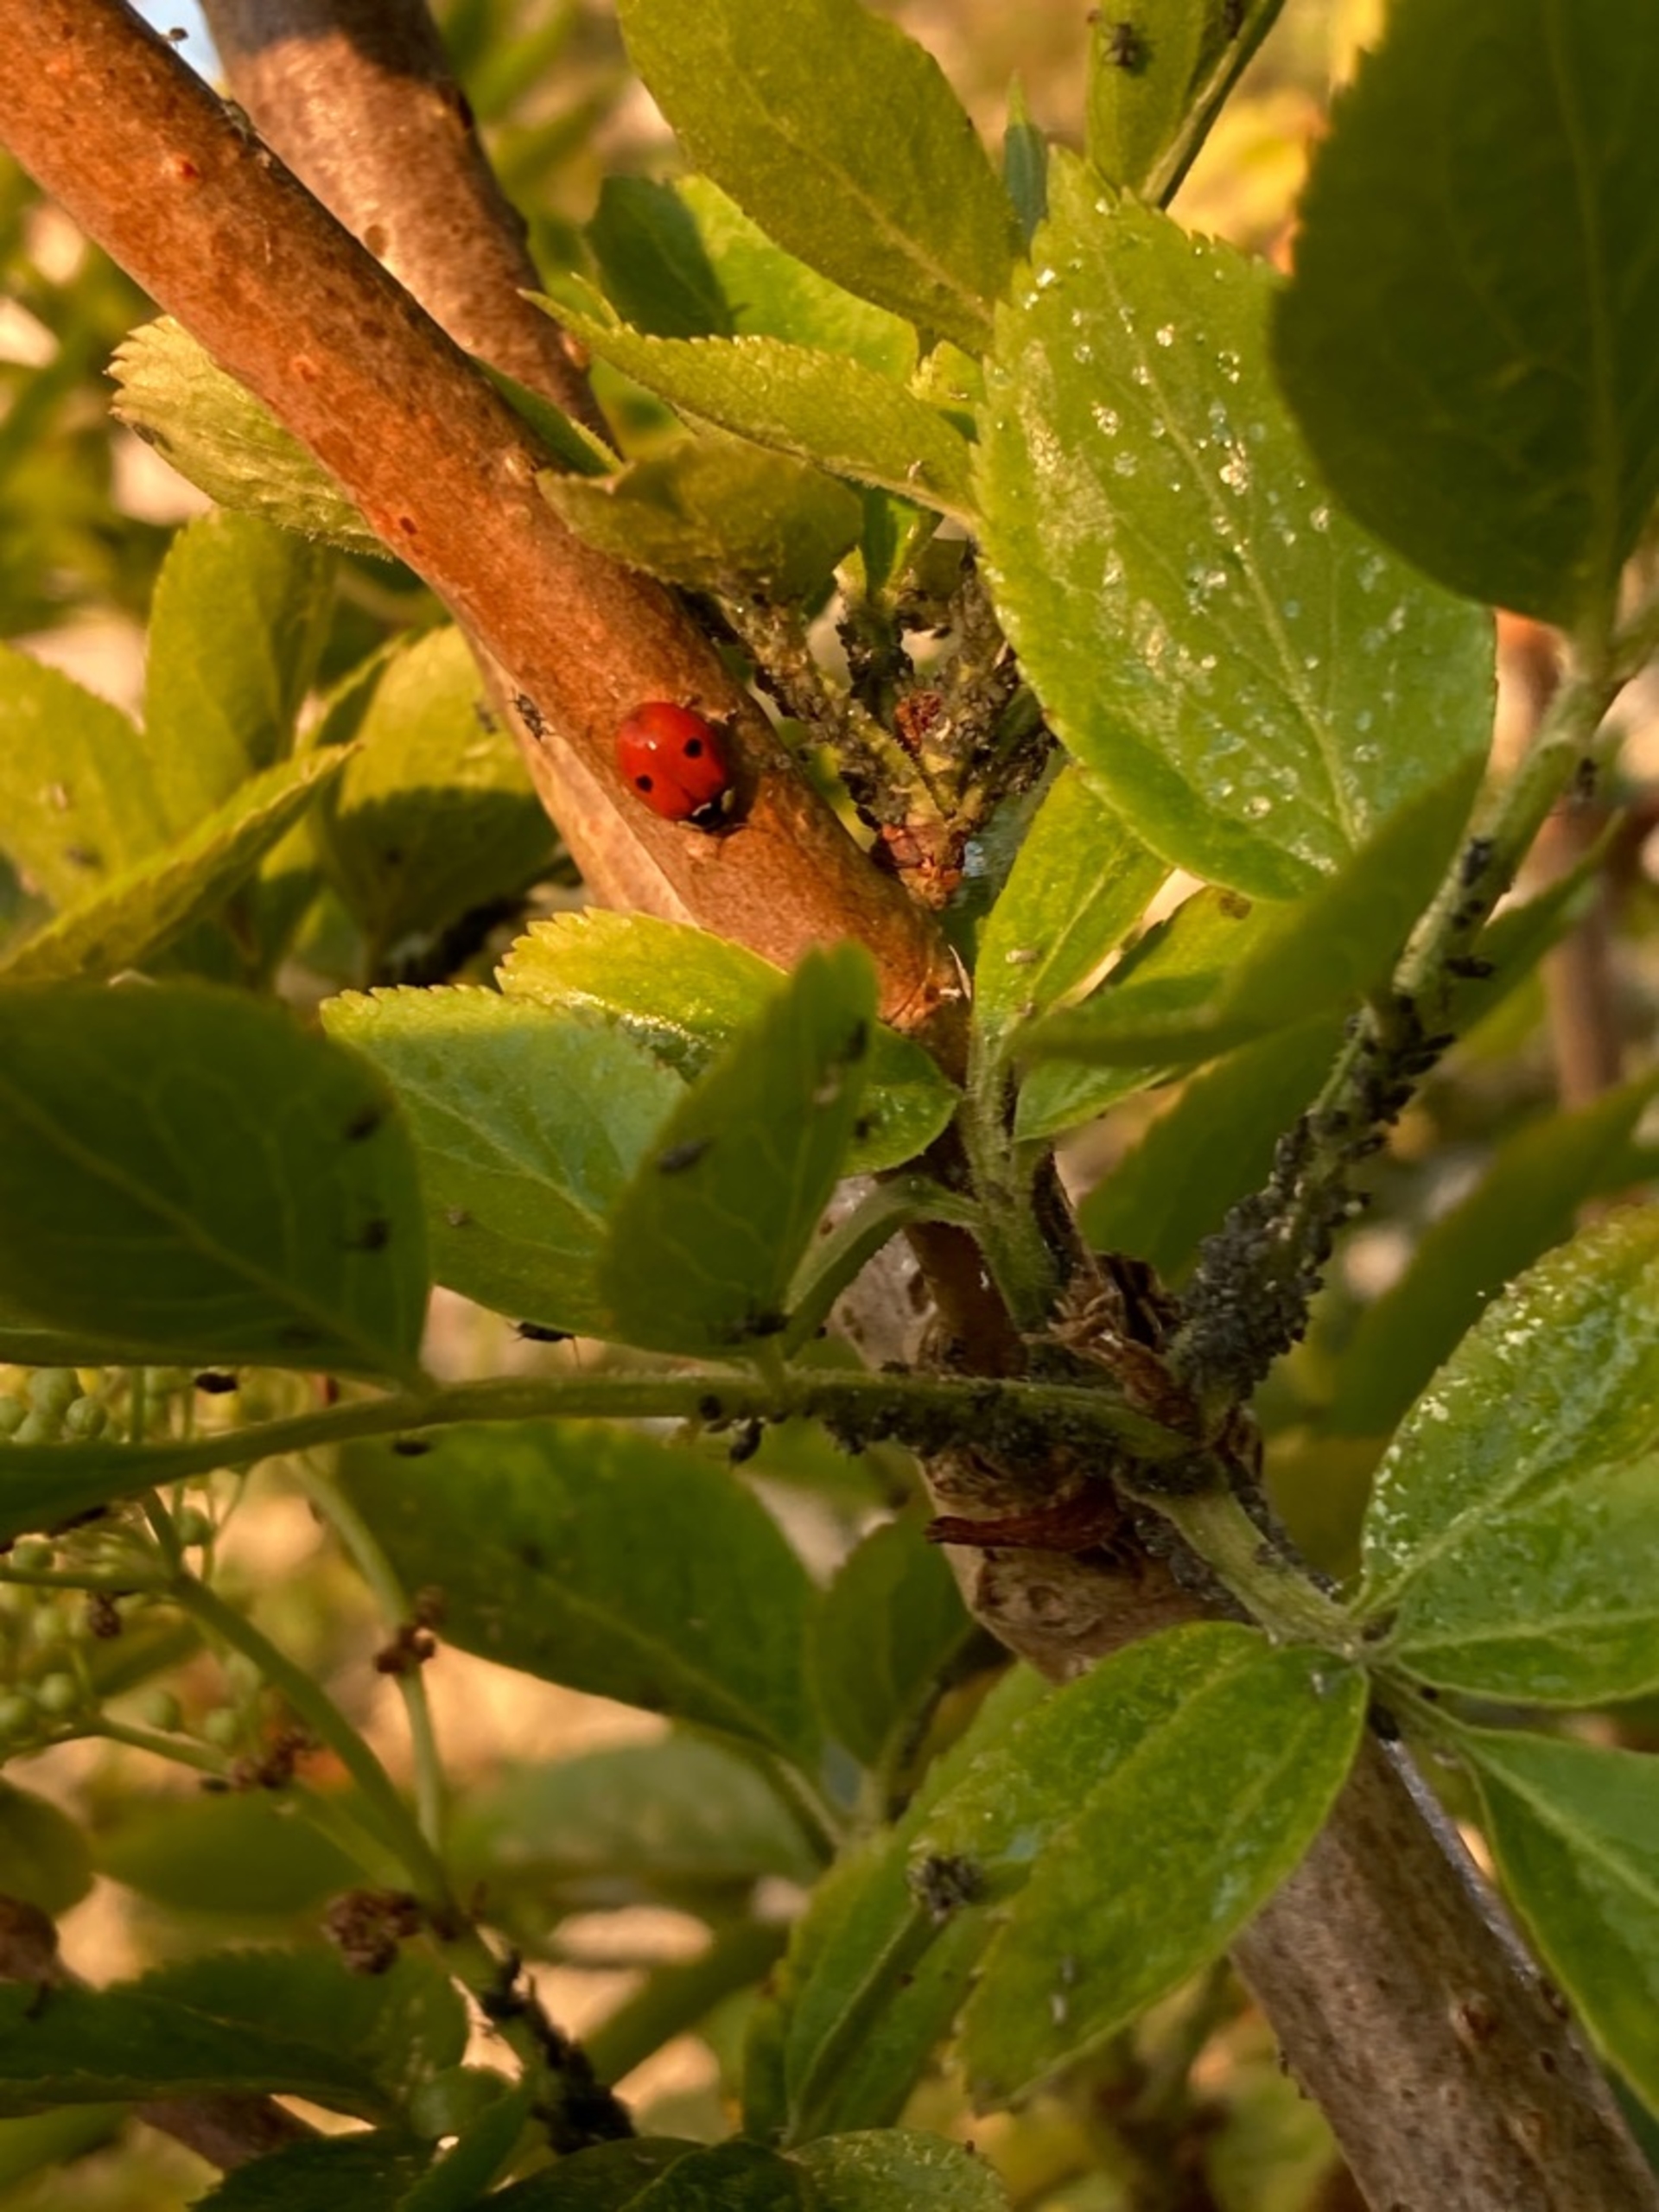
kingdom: Animalia
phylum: Arthropoda
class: Insecta
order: Coleoptera
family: Coccinellidae
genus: Adalia
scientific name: Adalia bipunctata
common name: Toplettet mariehøne
